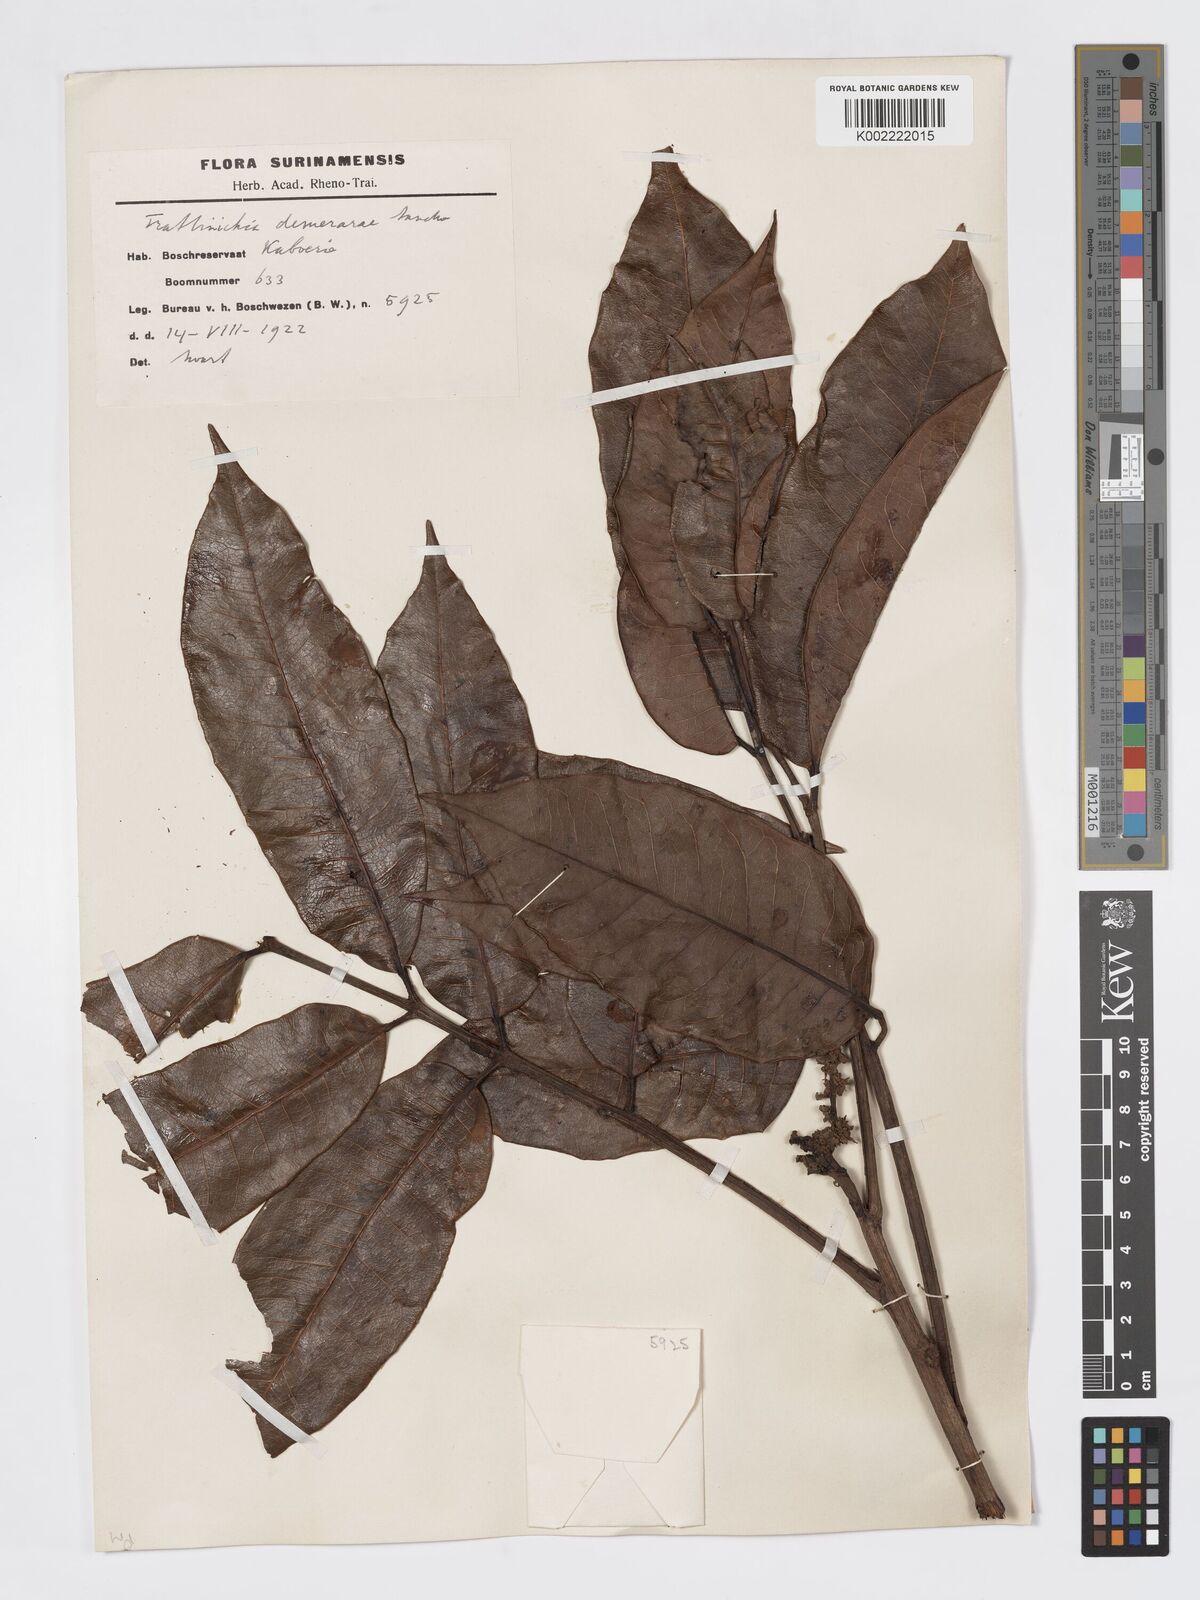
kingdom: Plantae
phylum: Tracheophyta
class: Magnoliopsida
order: Sapindales
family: Burseraceae
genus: Trattinnickia
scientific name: Trattinnickia demerarae
